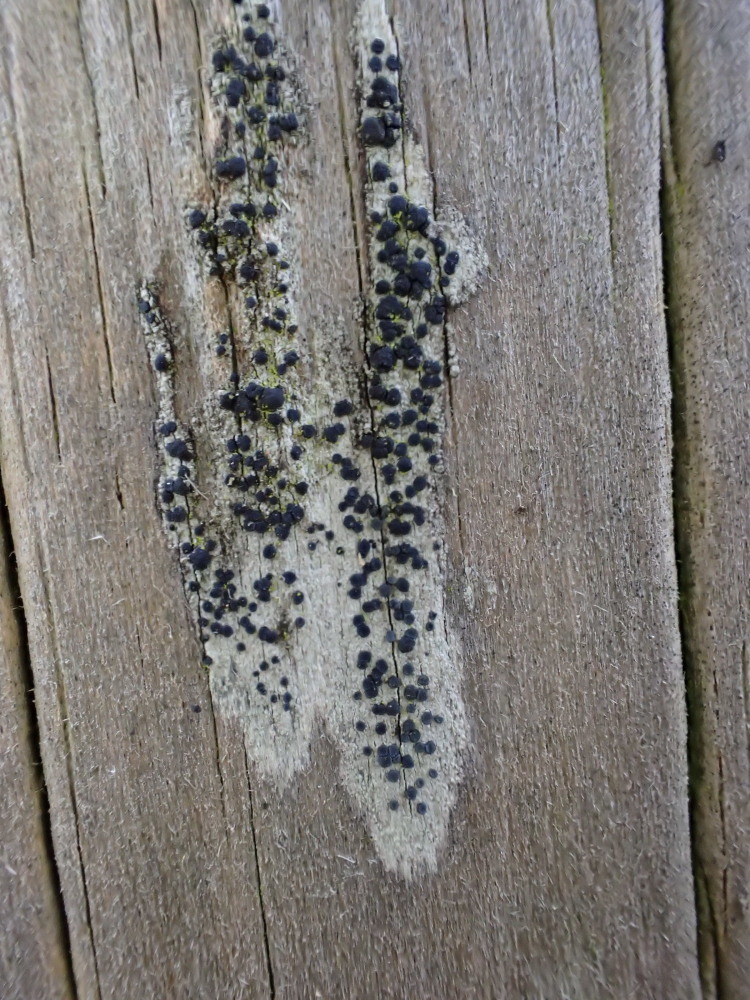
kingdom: Fungi
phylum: Ascomycota
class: Lecanoromycetes
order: Lecanorales
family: Lecanoraceae
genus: Lecidella
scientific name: Lecidella elaeochroma
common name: grågrøn skivelav
